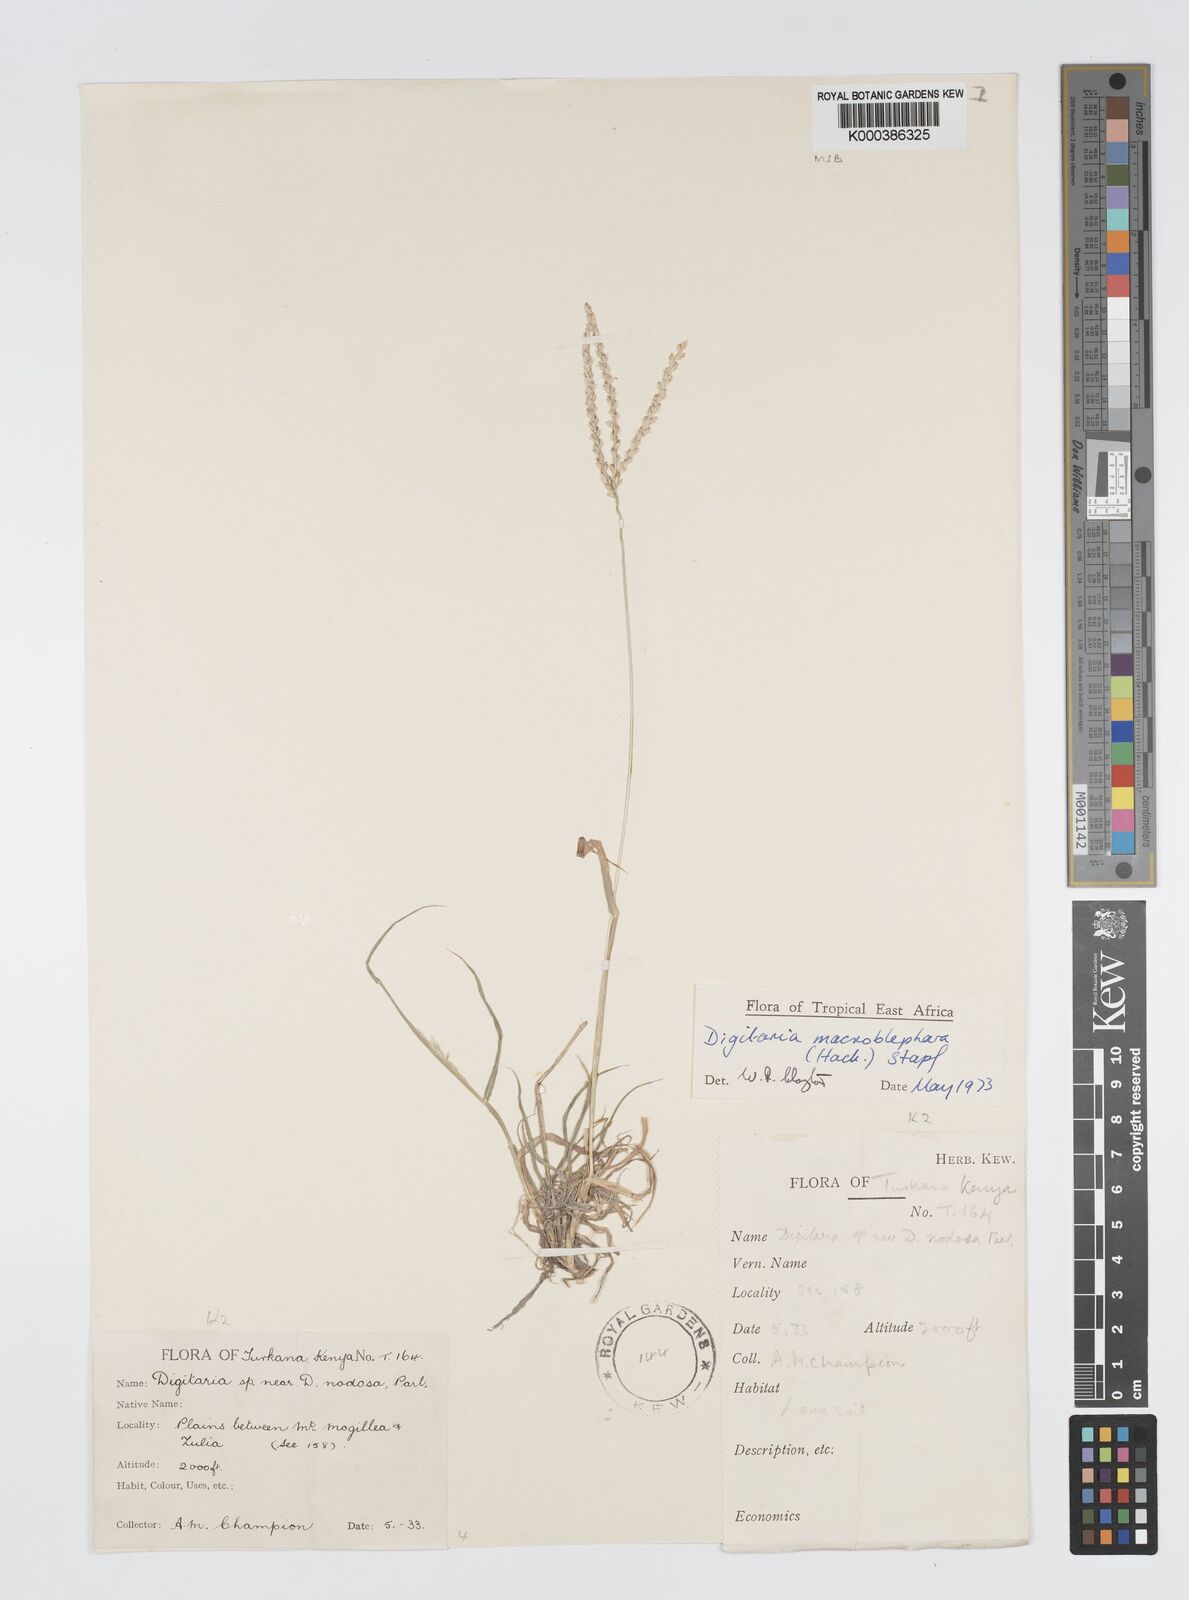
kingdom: Plantae
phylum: Tracheophyta
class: Liliopsida
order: Poales
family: Poaceae
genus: Digitaria
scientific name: Digitaria macroblephara
